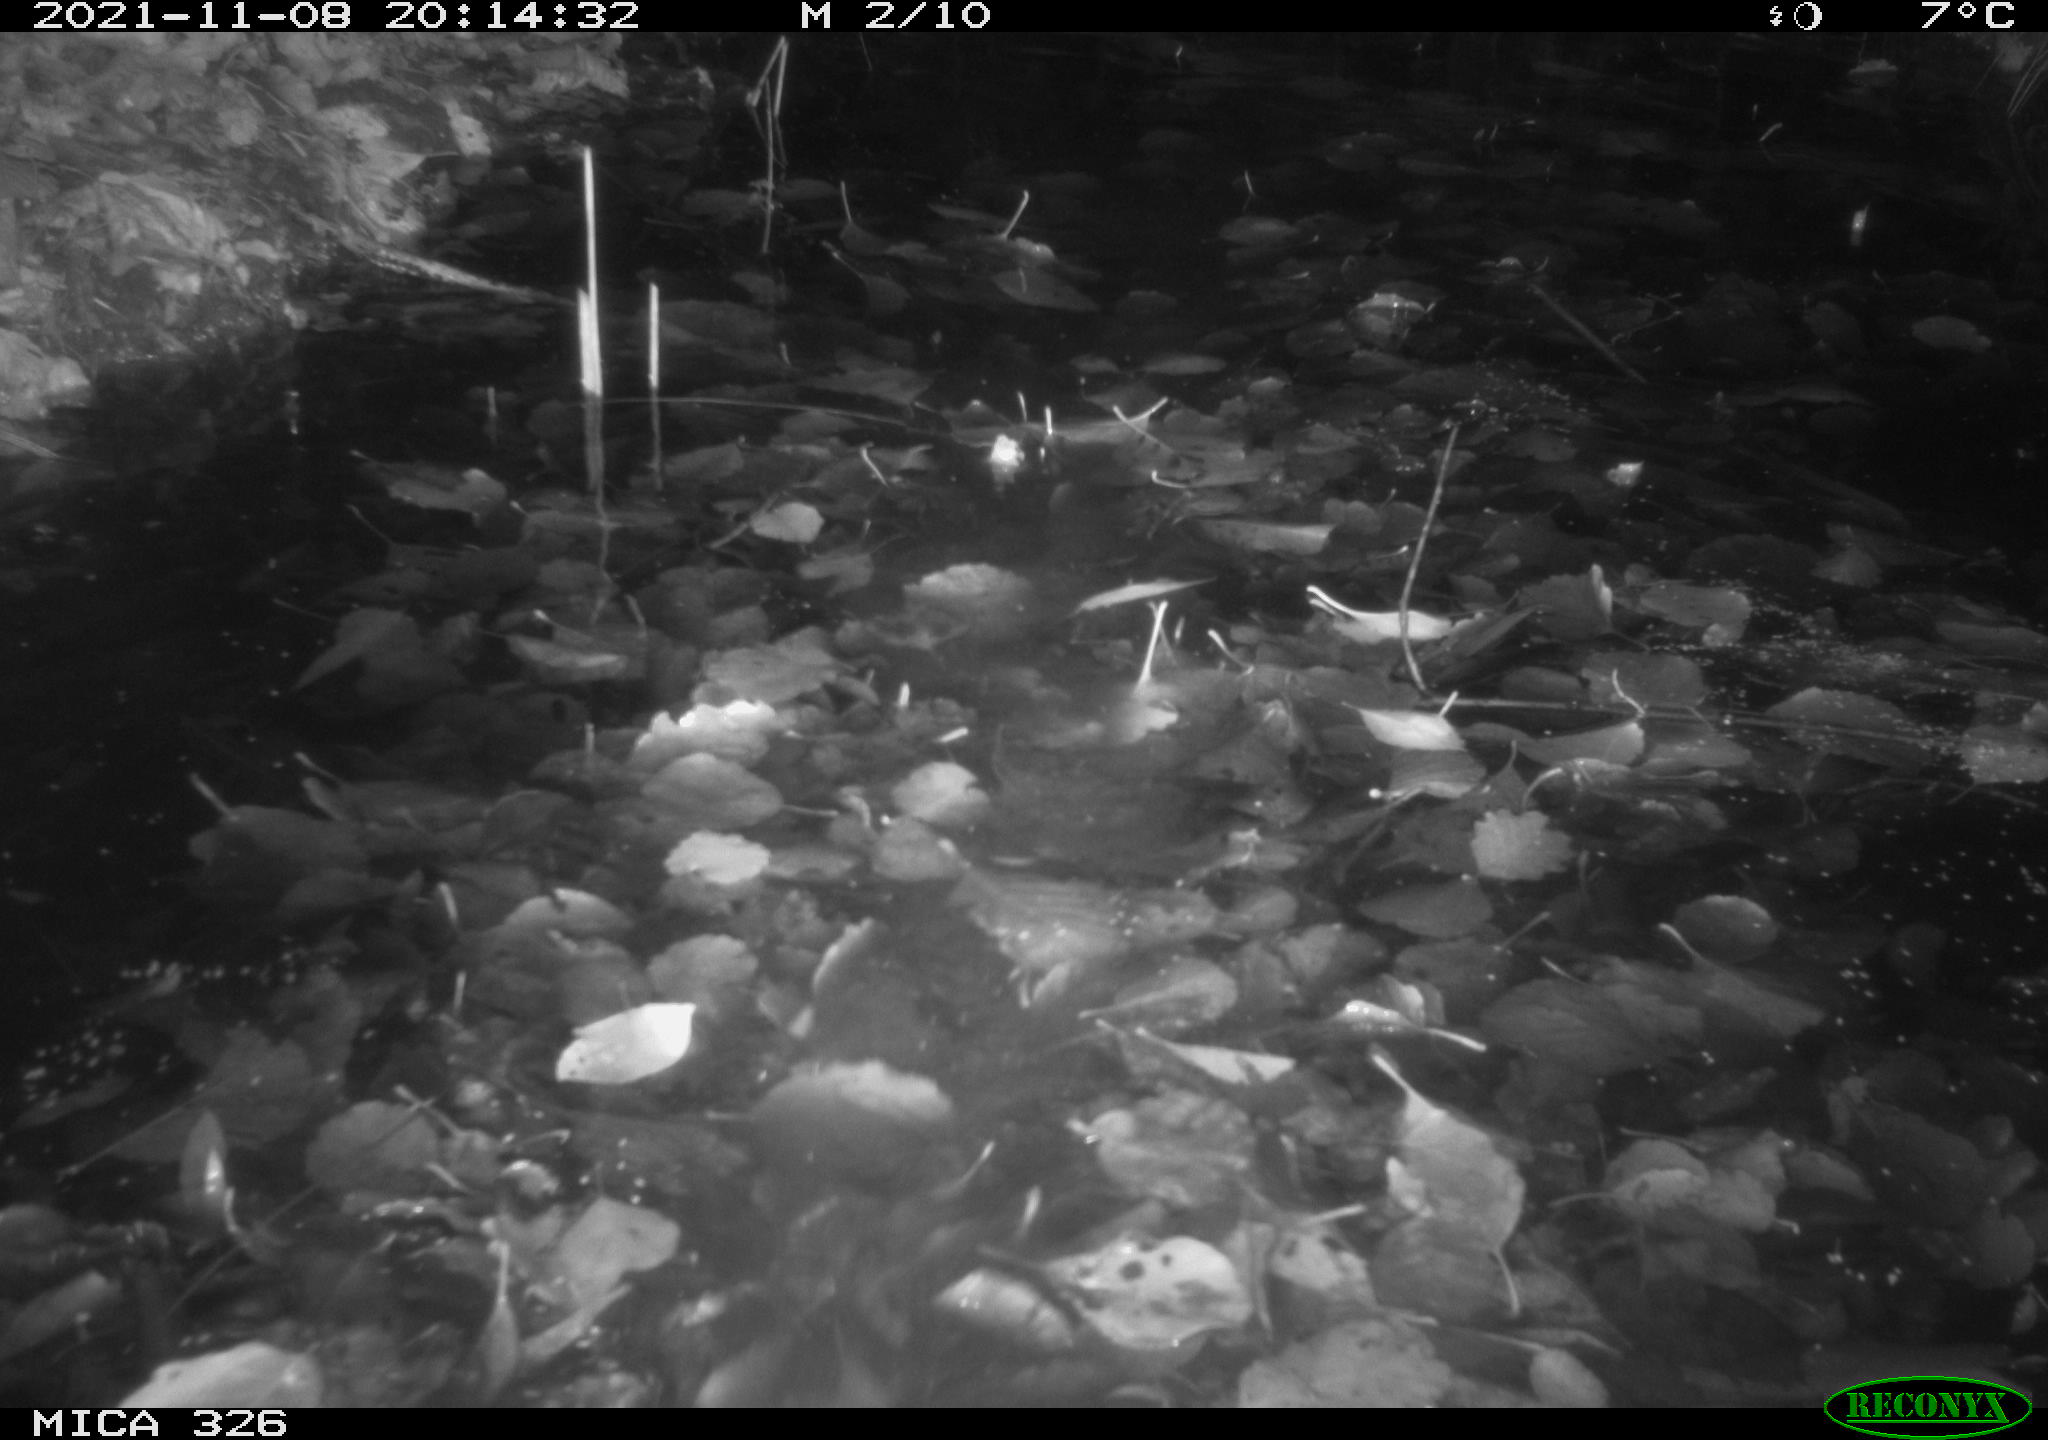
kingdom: Animalia
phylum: Chordata
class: Mammalia
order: Rodentia
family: Myocastoridae
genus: Myocastor
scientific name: Myocastor coypus
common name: Coypu
